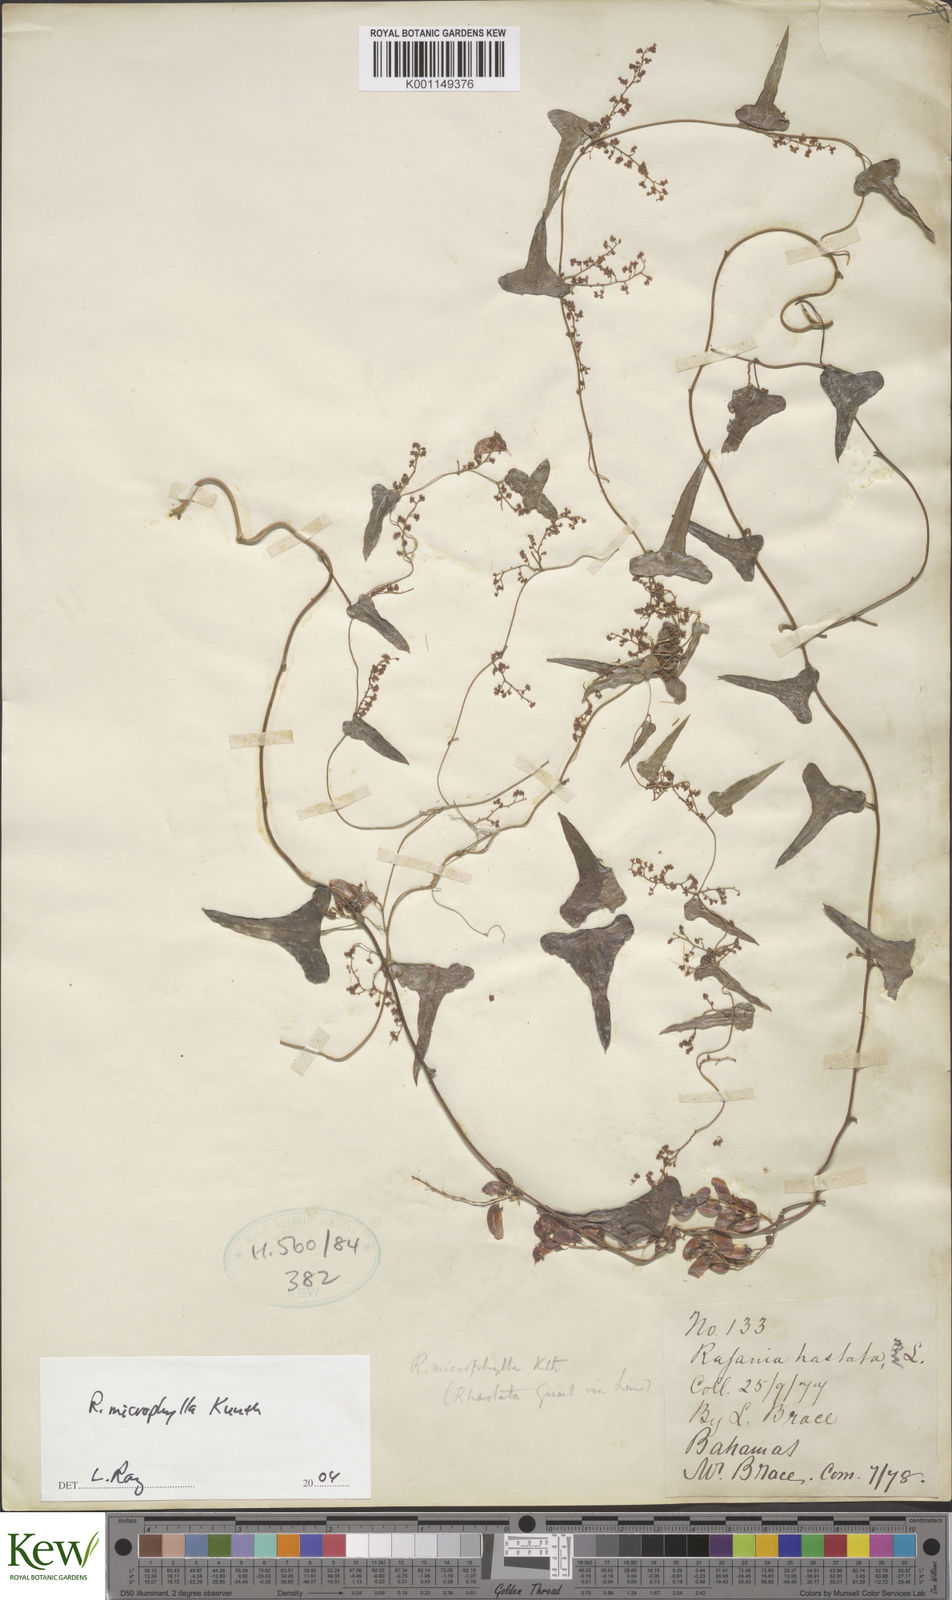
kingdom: Plantae
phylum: Tracheophyta
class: Liliopsida
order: Dioscoreales
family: Dioscoreaceae
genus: Dioscorea
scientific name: Dioscorea variifolia
